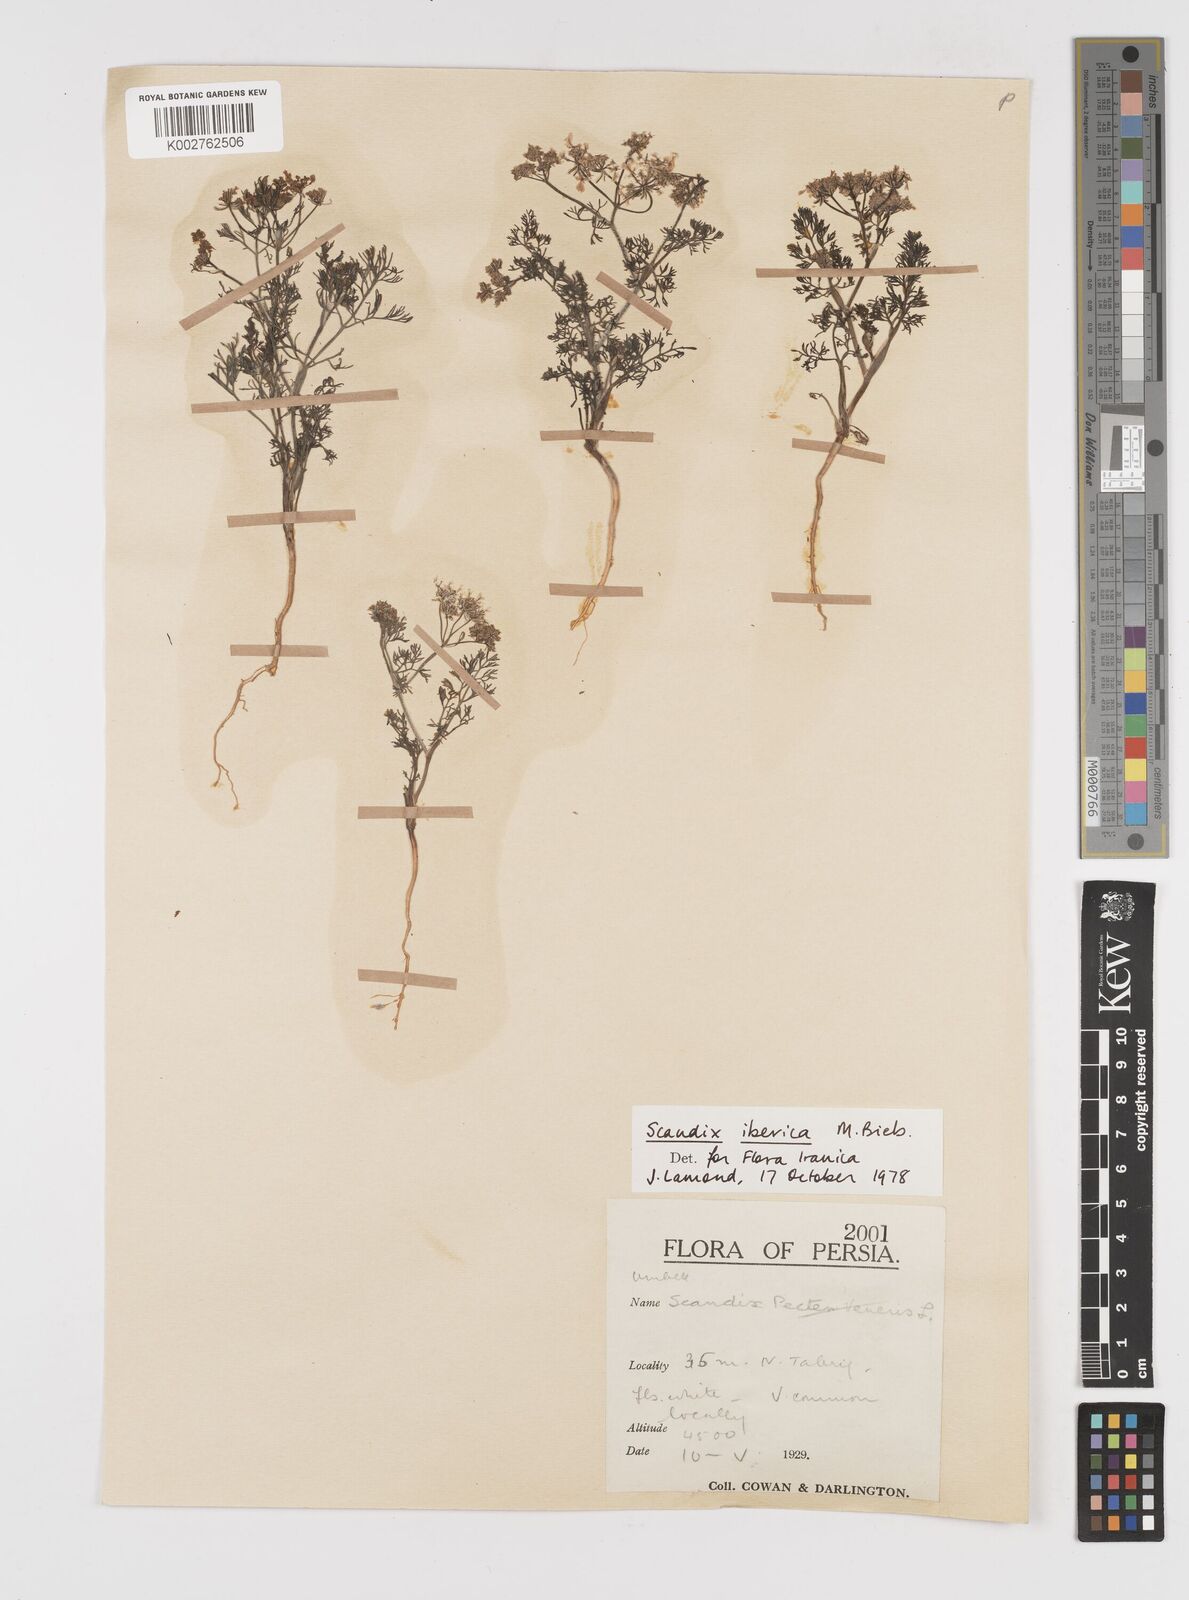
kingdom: Plantae
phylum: Tracheophyta
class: Magnoliopsida
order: Apiales
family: Apiaceae
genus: Scandix
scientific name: Scandix iberica
